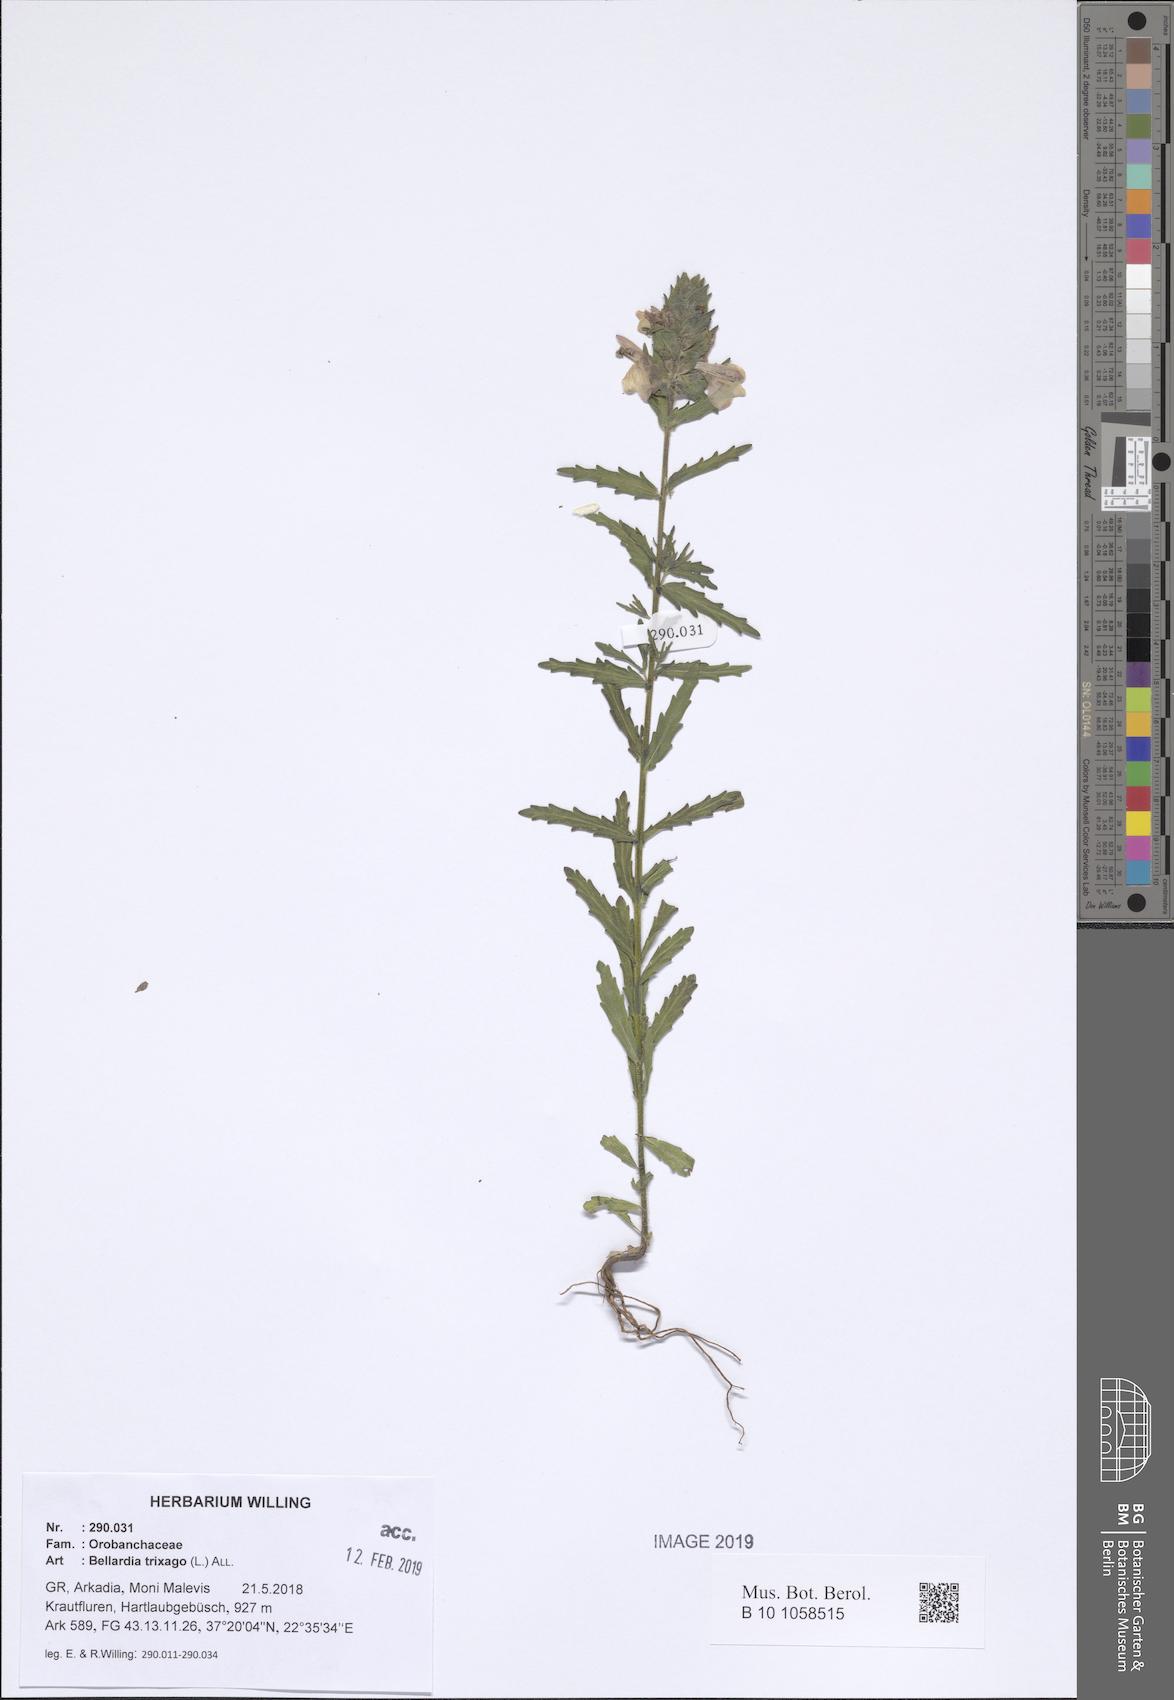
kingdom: Plantae
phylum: Tracheophyta
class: Magnoliopsida
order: Lamiales
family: Orobanchaceae
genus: Bellardia
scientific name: Bellardia trixago
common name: Mediterranean lineseed
